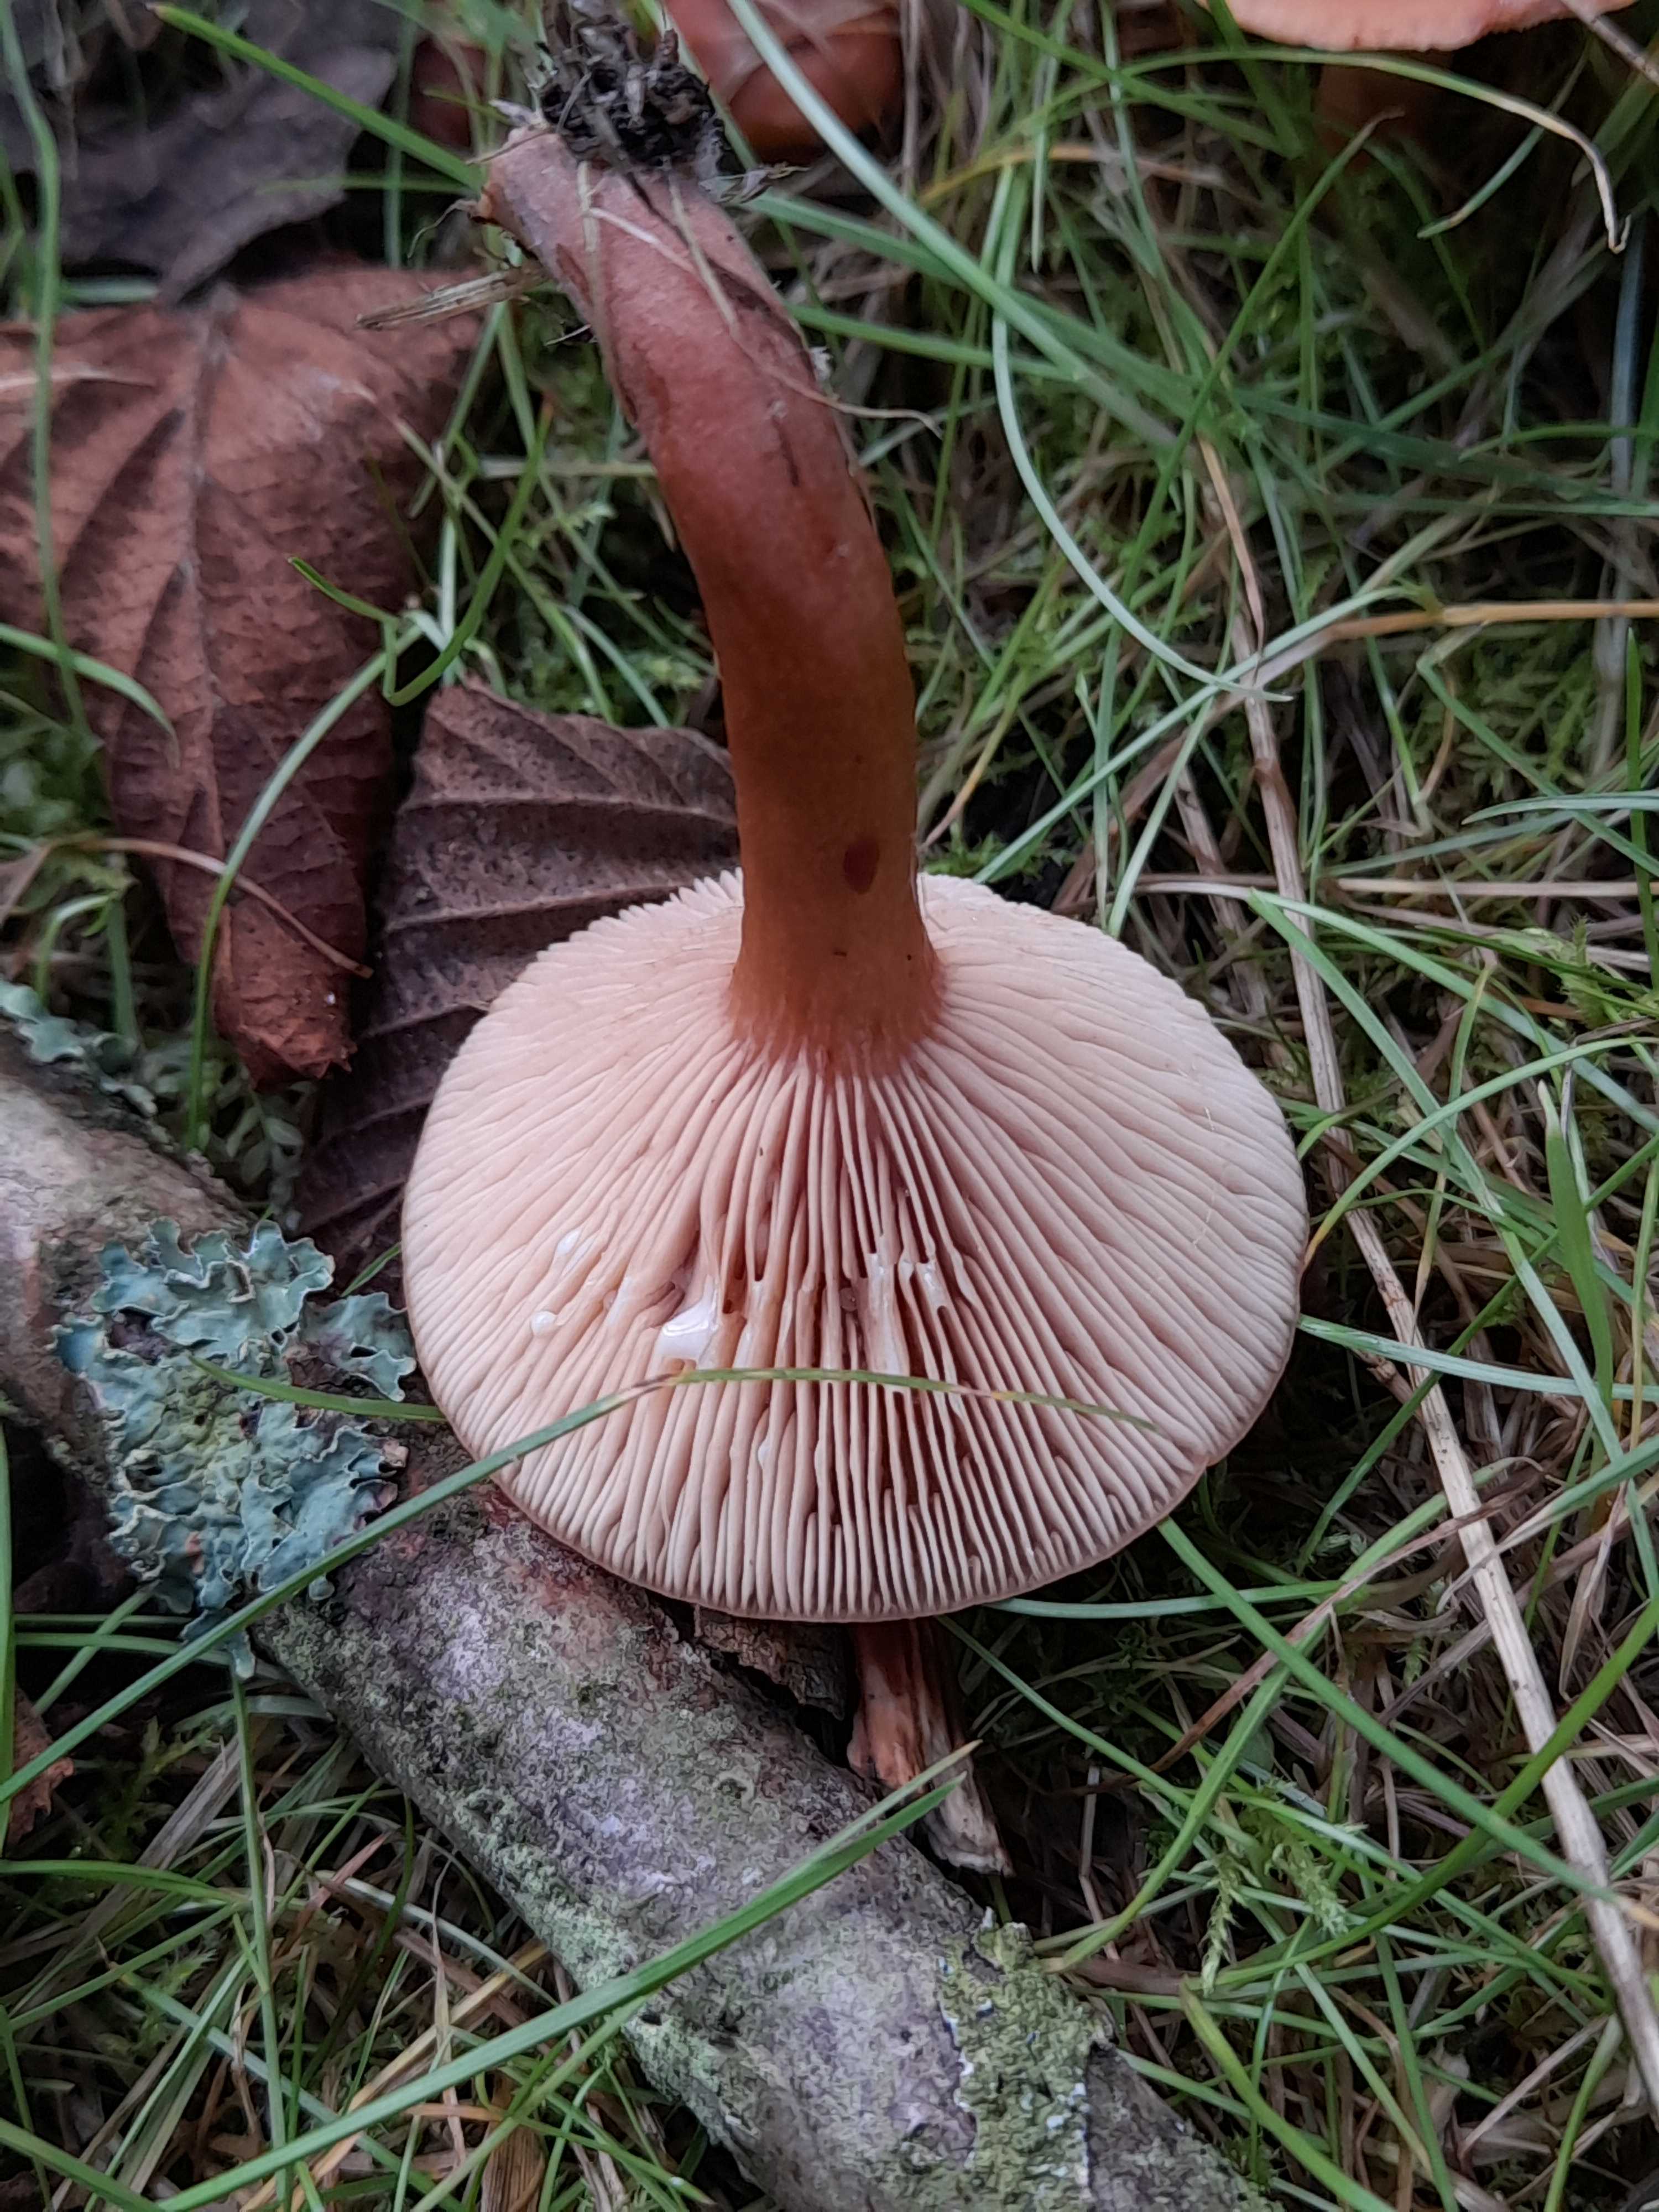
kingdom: Fungi
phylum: Basidiomycota
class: Agaricomycetes
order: Russulales
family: Russulaceae
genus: Lactarius
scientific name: Lactarius tabidus
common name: rynket mælkehat
